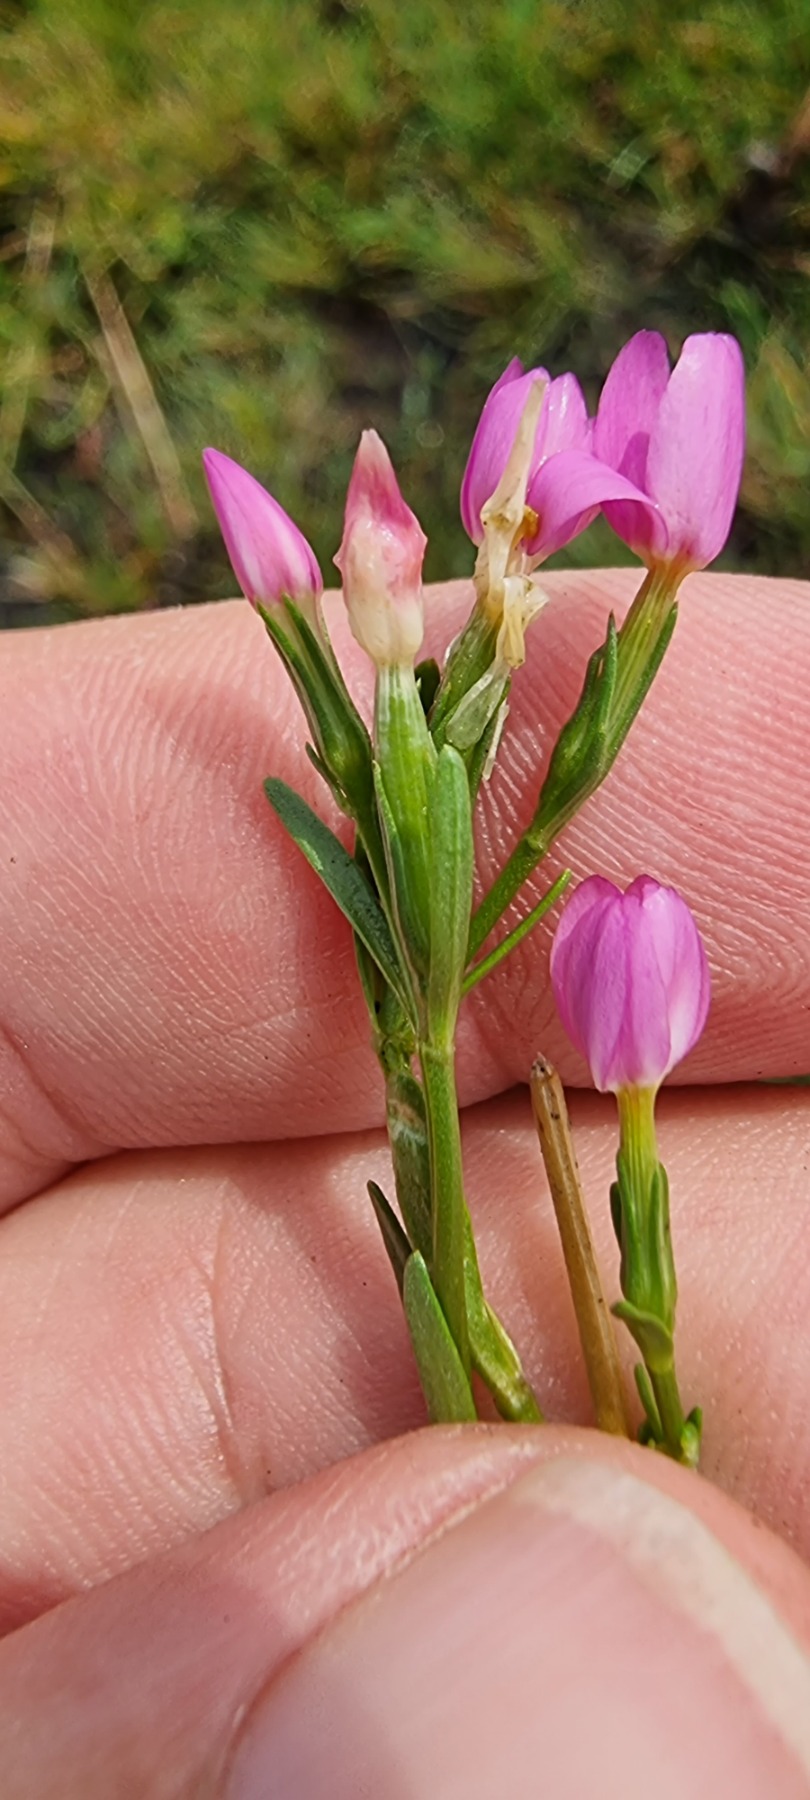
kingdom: Plantae
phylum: Tracheophyta
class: Magnoliopsida
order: Gentianales
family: Gentianaceae
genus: Centaurium
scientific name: Centaurium littorale
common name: Strand-tusindgylden
